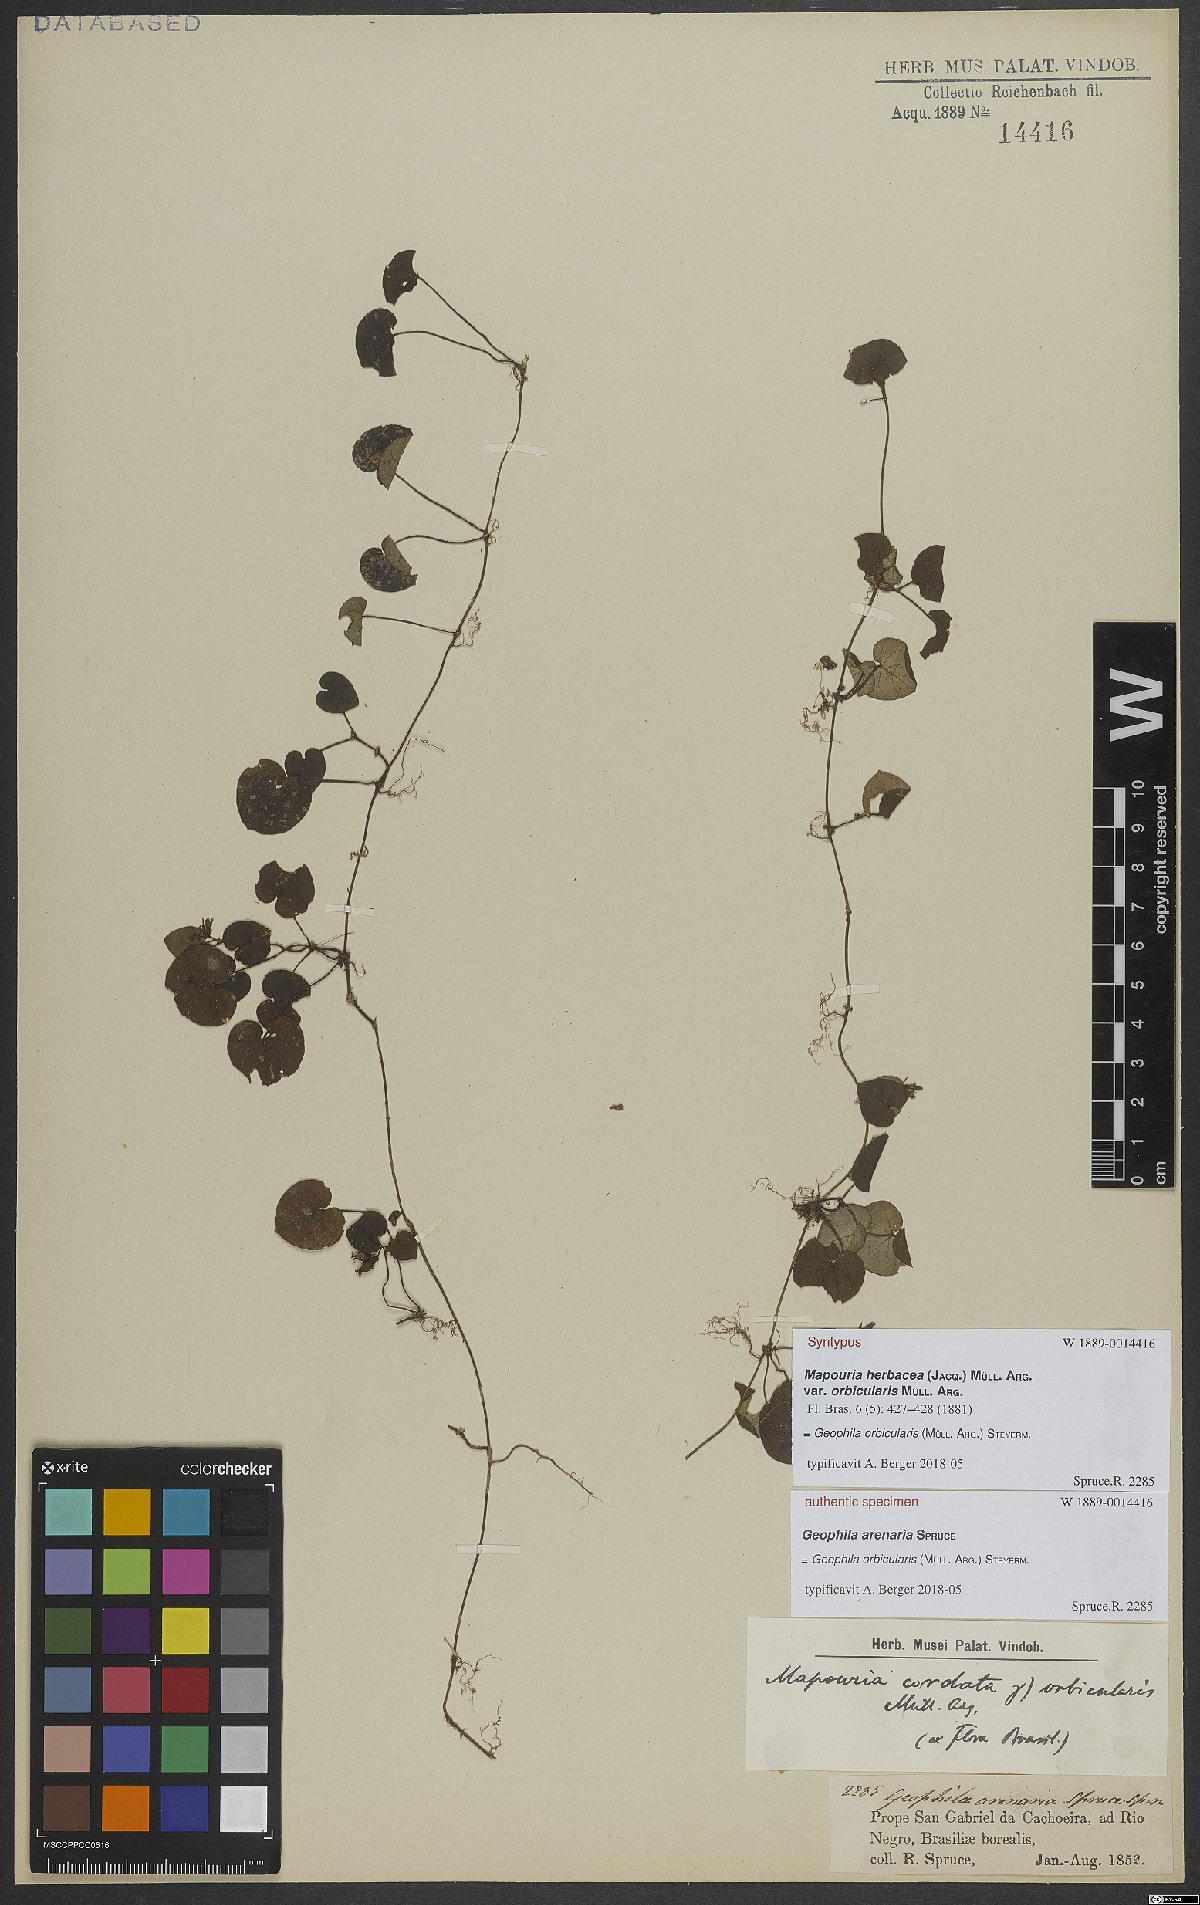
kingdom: Plantae
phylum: Tracheophyta
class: Magnoliopsida
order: Gentianales
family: Rubiaceae
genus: Geophila
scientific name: Geophila orbicularis
